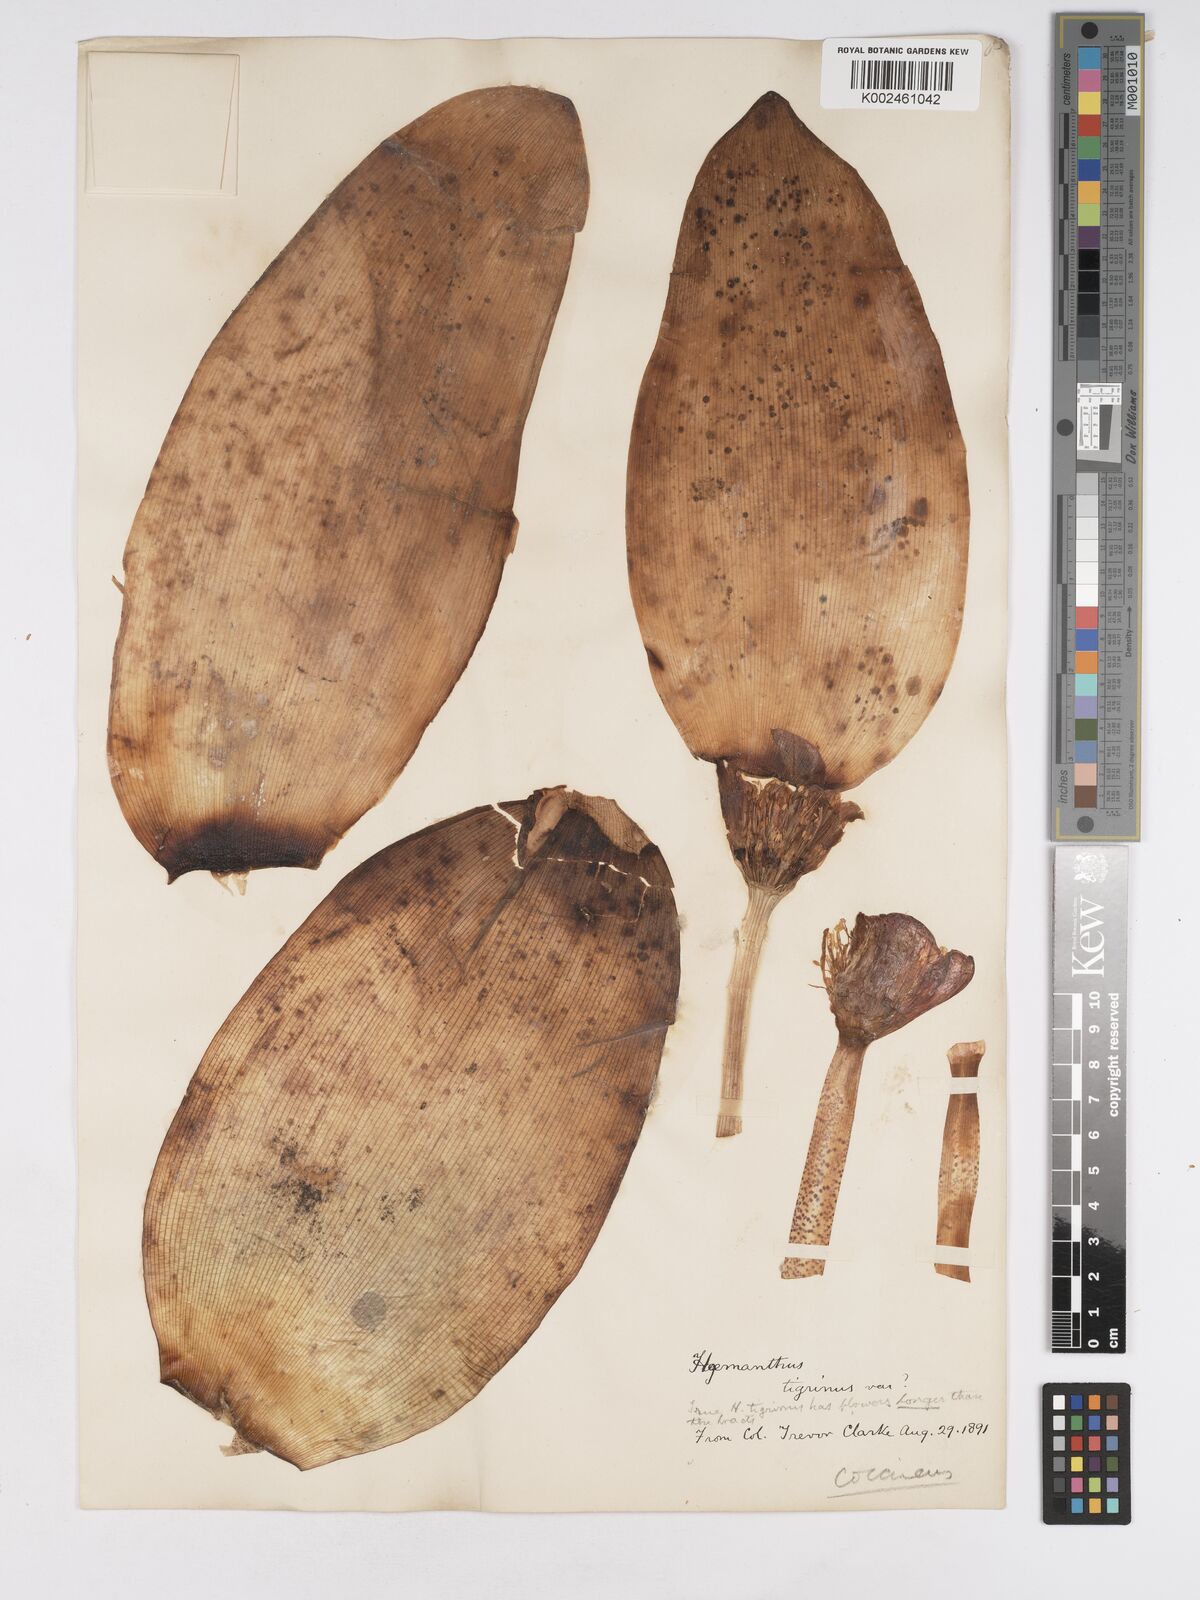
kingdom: Plantae
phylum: Tracheophyta
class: Liliopsida
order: Asparagales
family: Amaryllidaceae
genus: Haemanthus
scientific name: Haemanthus coccineus
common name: Cape-tulip
